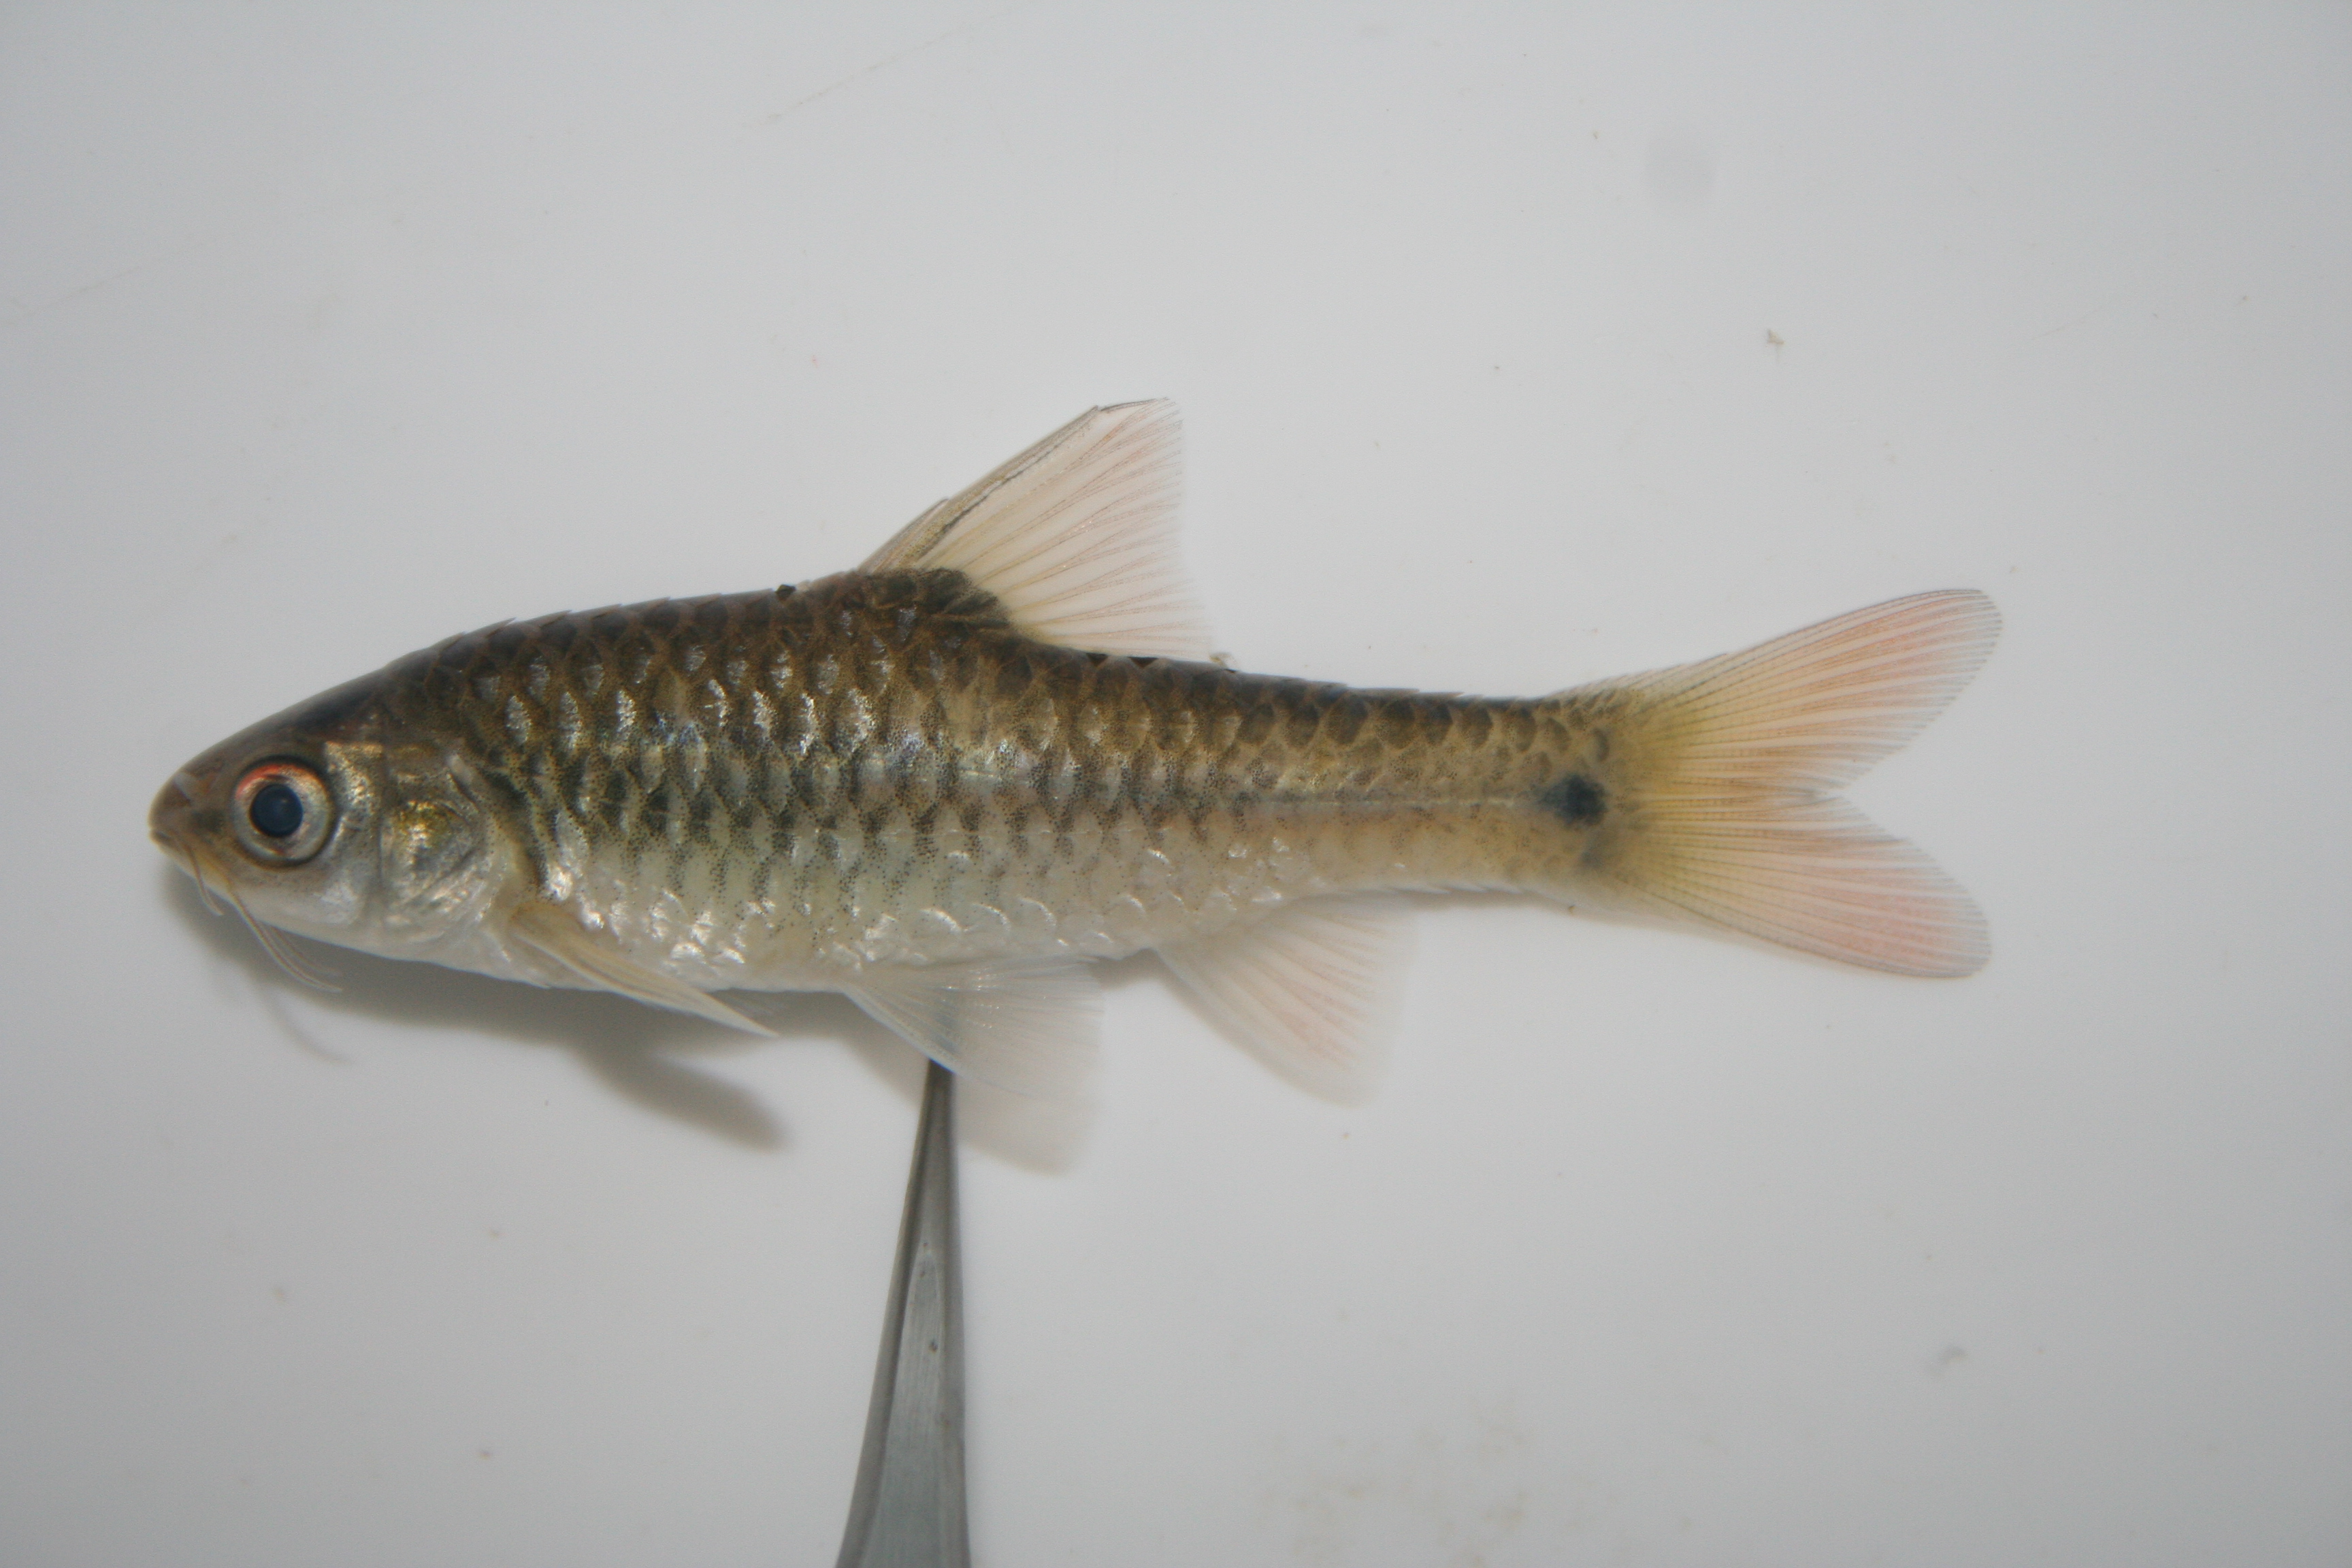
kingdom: Animalia
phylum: Chordata
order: Cypriniformes
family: Cyprinidae
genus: Enteromius
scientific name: Enteromius kessleri
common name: Gillbar barb
